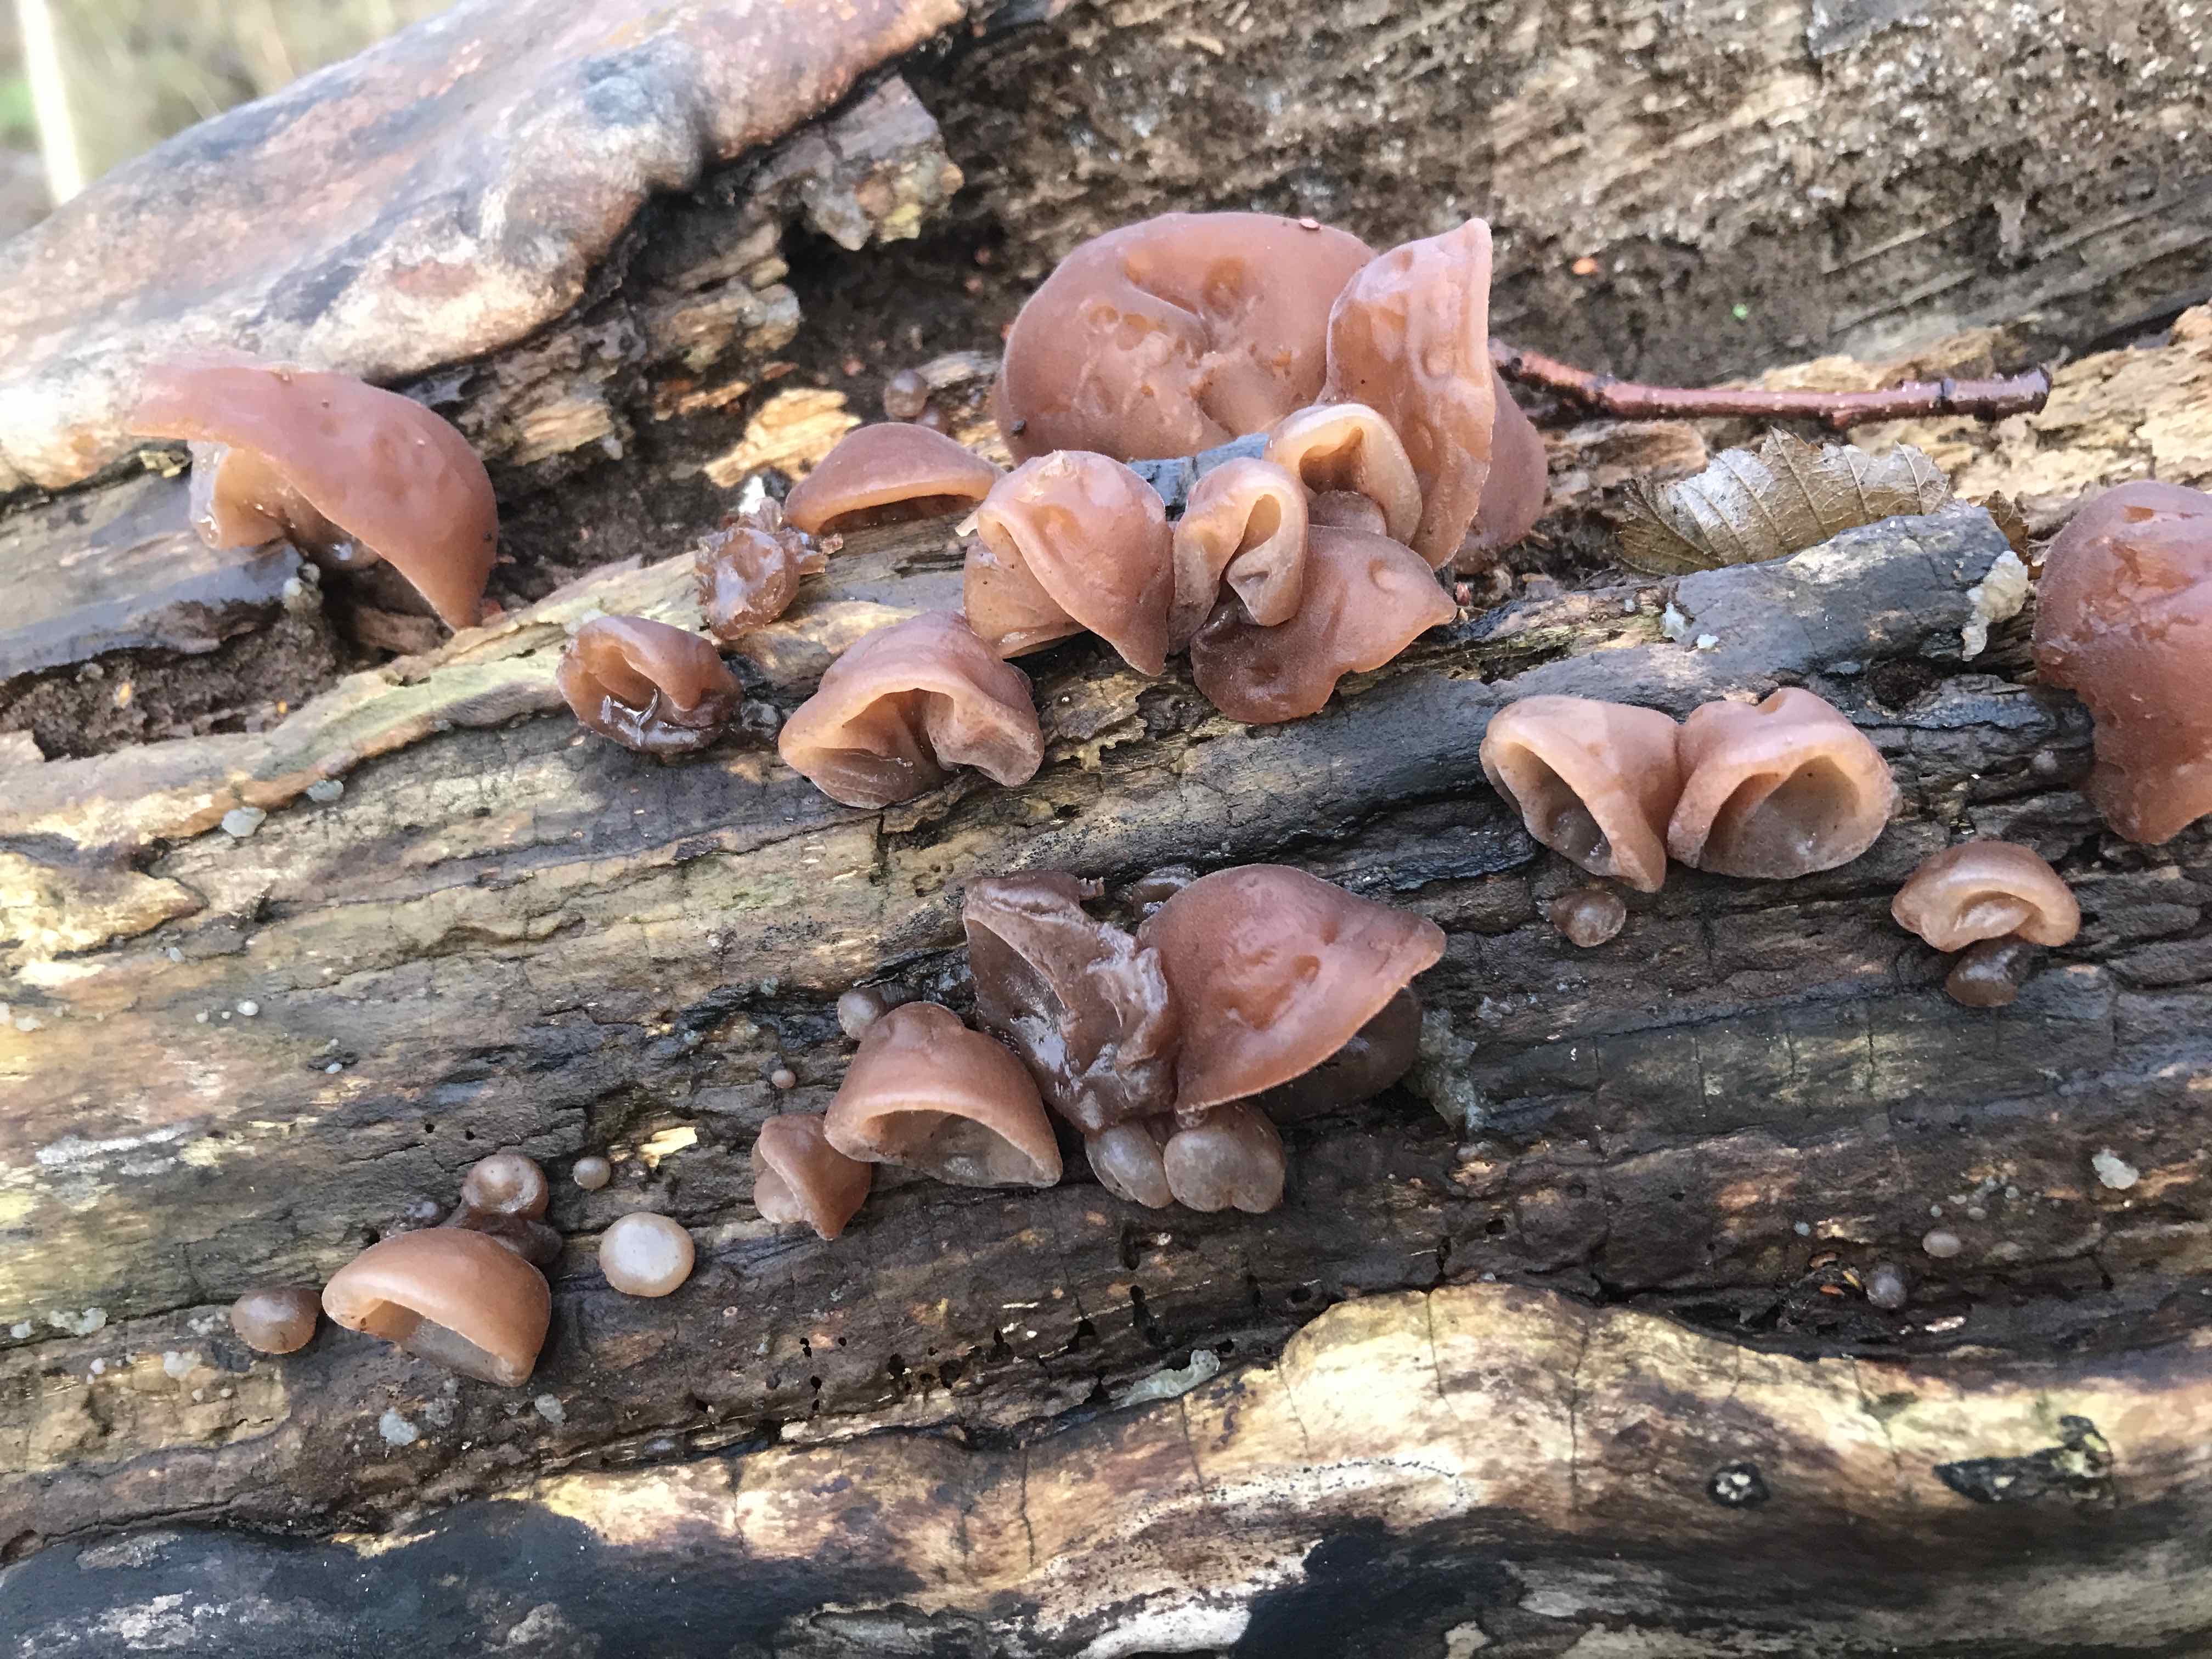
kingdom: Fungi
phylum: Basidiomycota
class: Agaricomycetes
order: Auriculariales
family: Auriculariaceae
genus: Auricularia
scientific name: Auricularia auricula-judae
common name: almindelig judasøre
